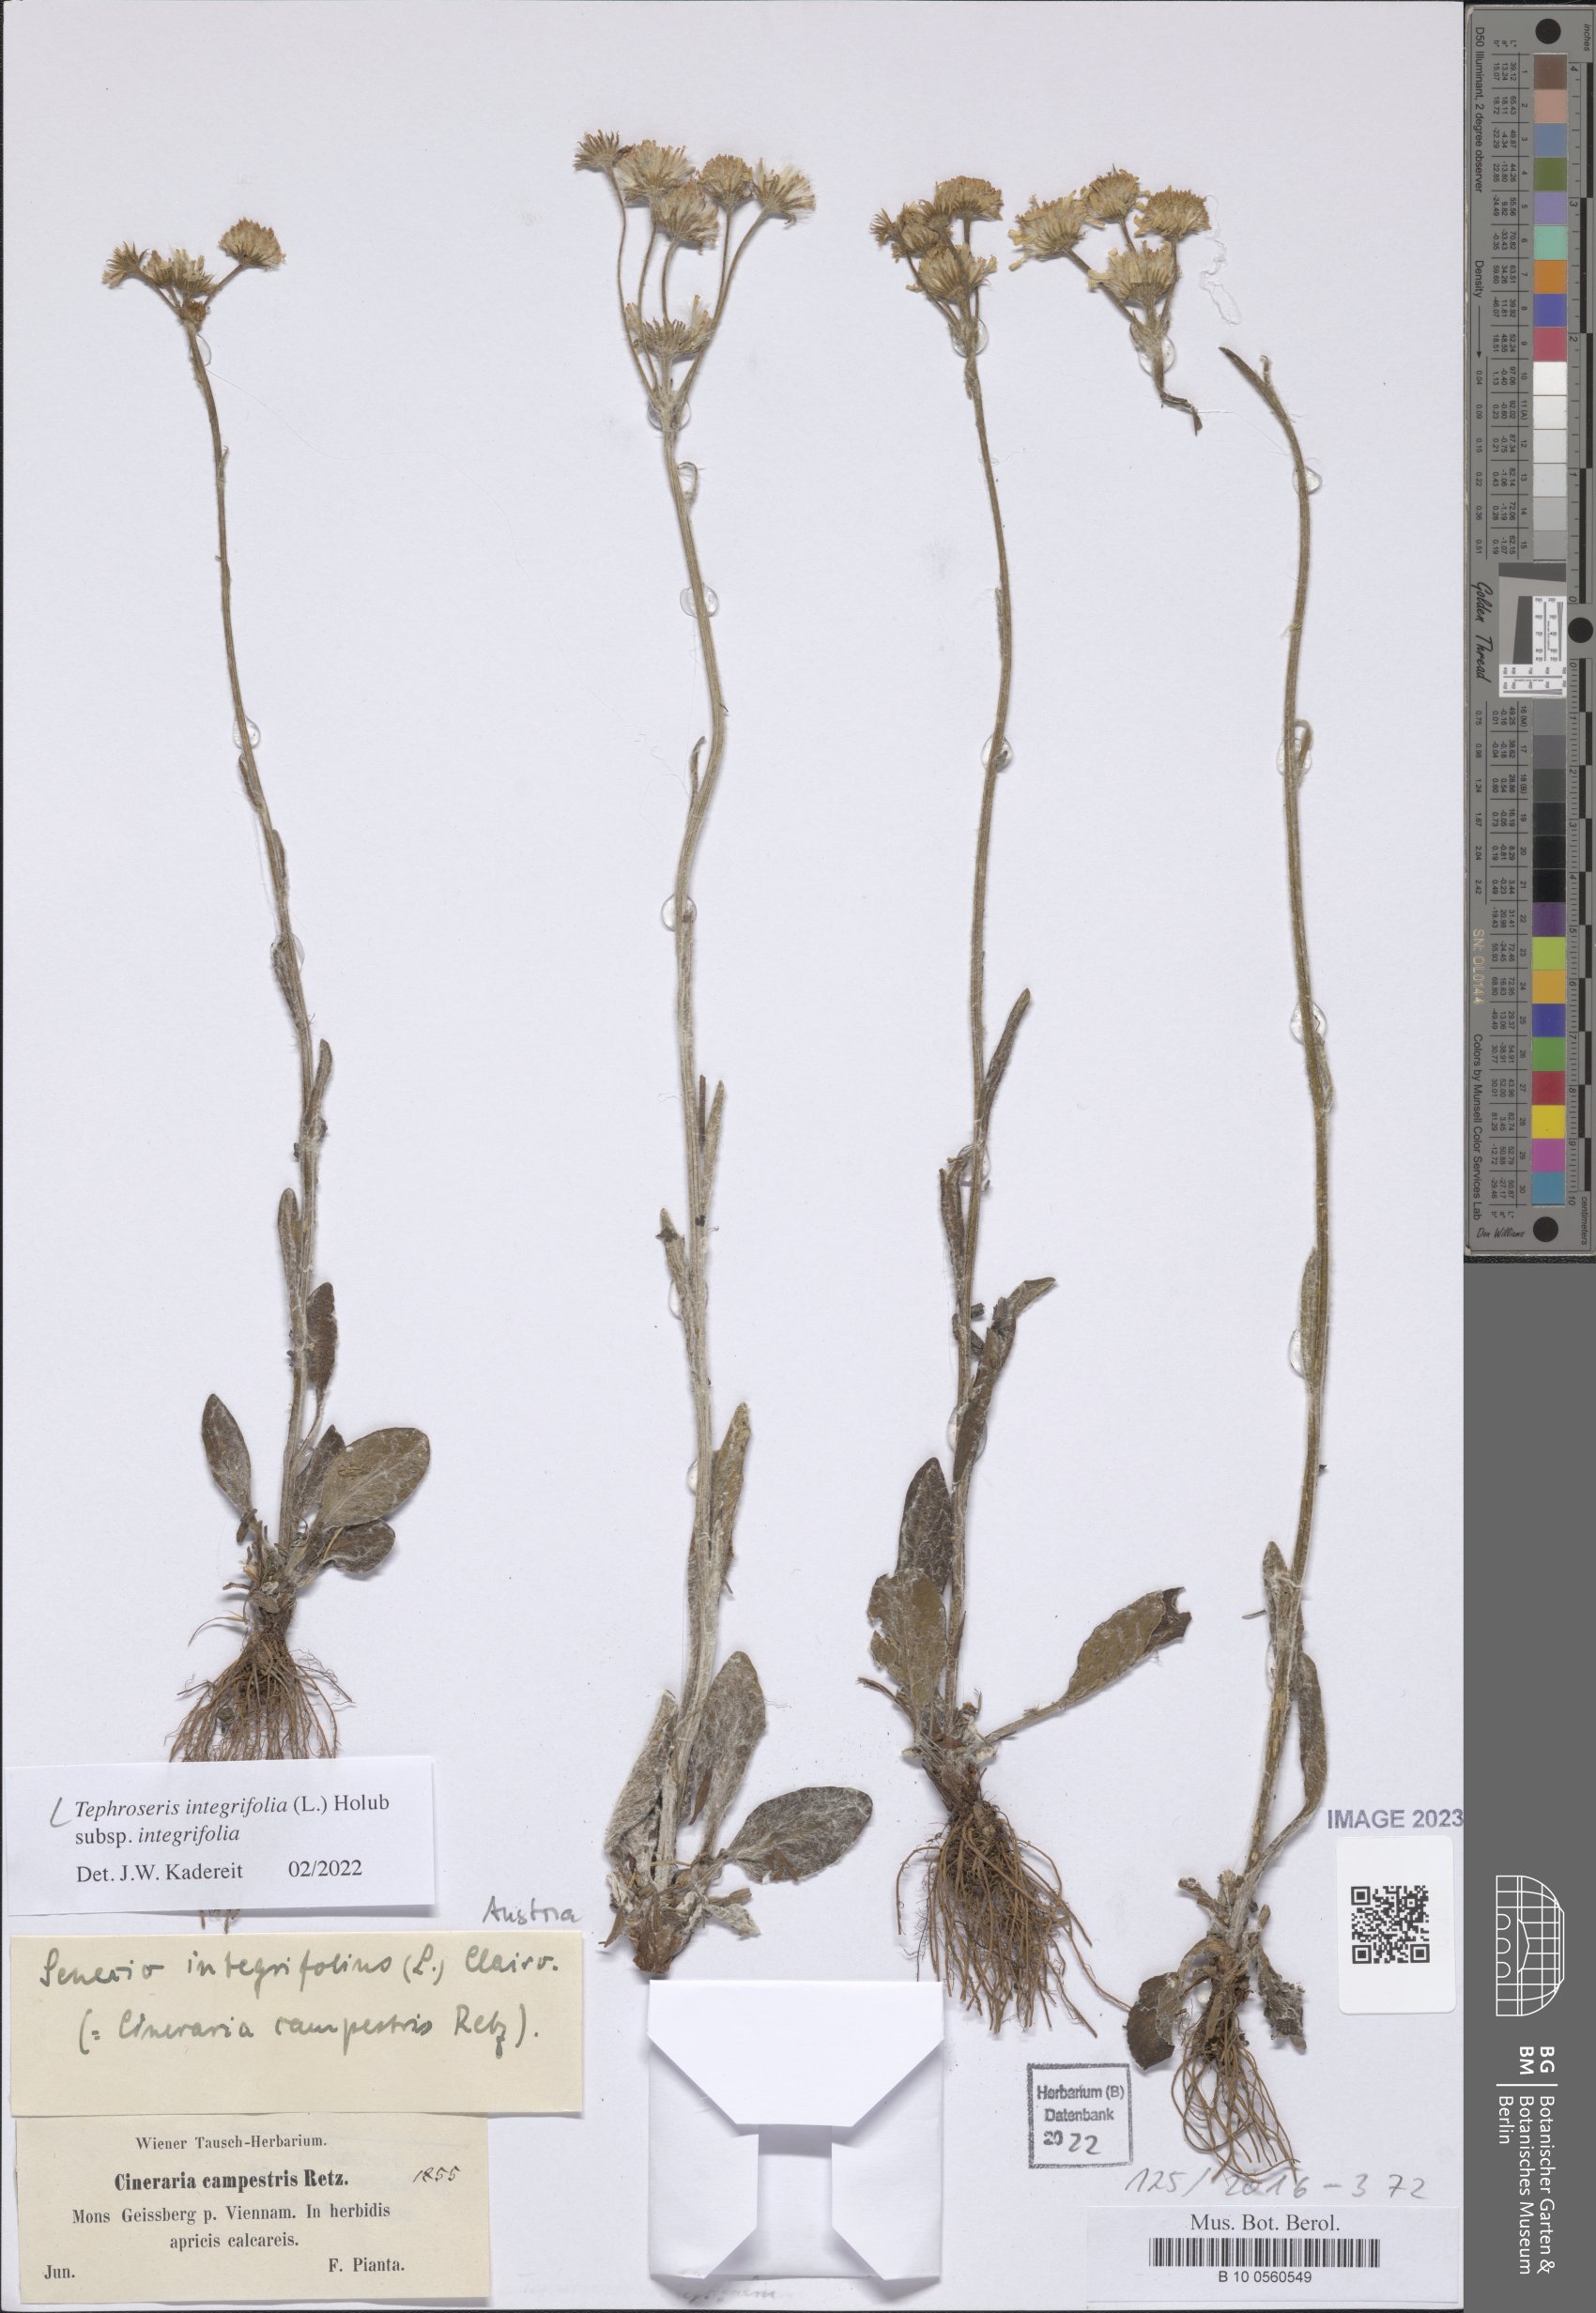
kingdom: Plantae
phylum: Tracheophyta
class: Magnoliopsida
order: Asterales
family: Asteraceae
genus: Tephroseris
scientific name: Tephroseris integrifolia
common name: Field fleawort
